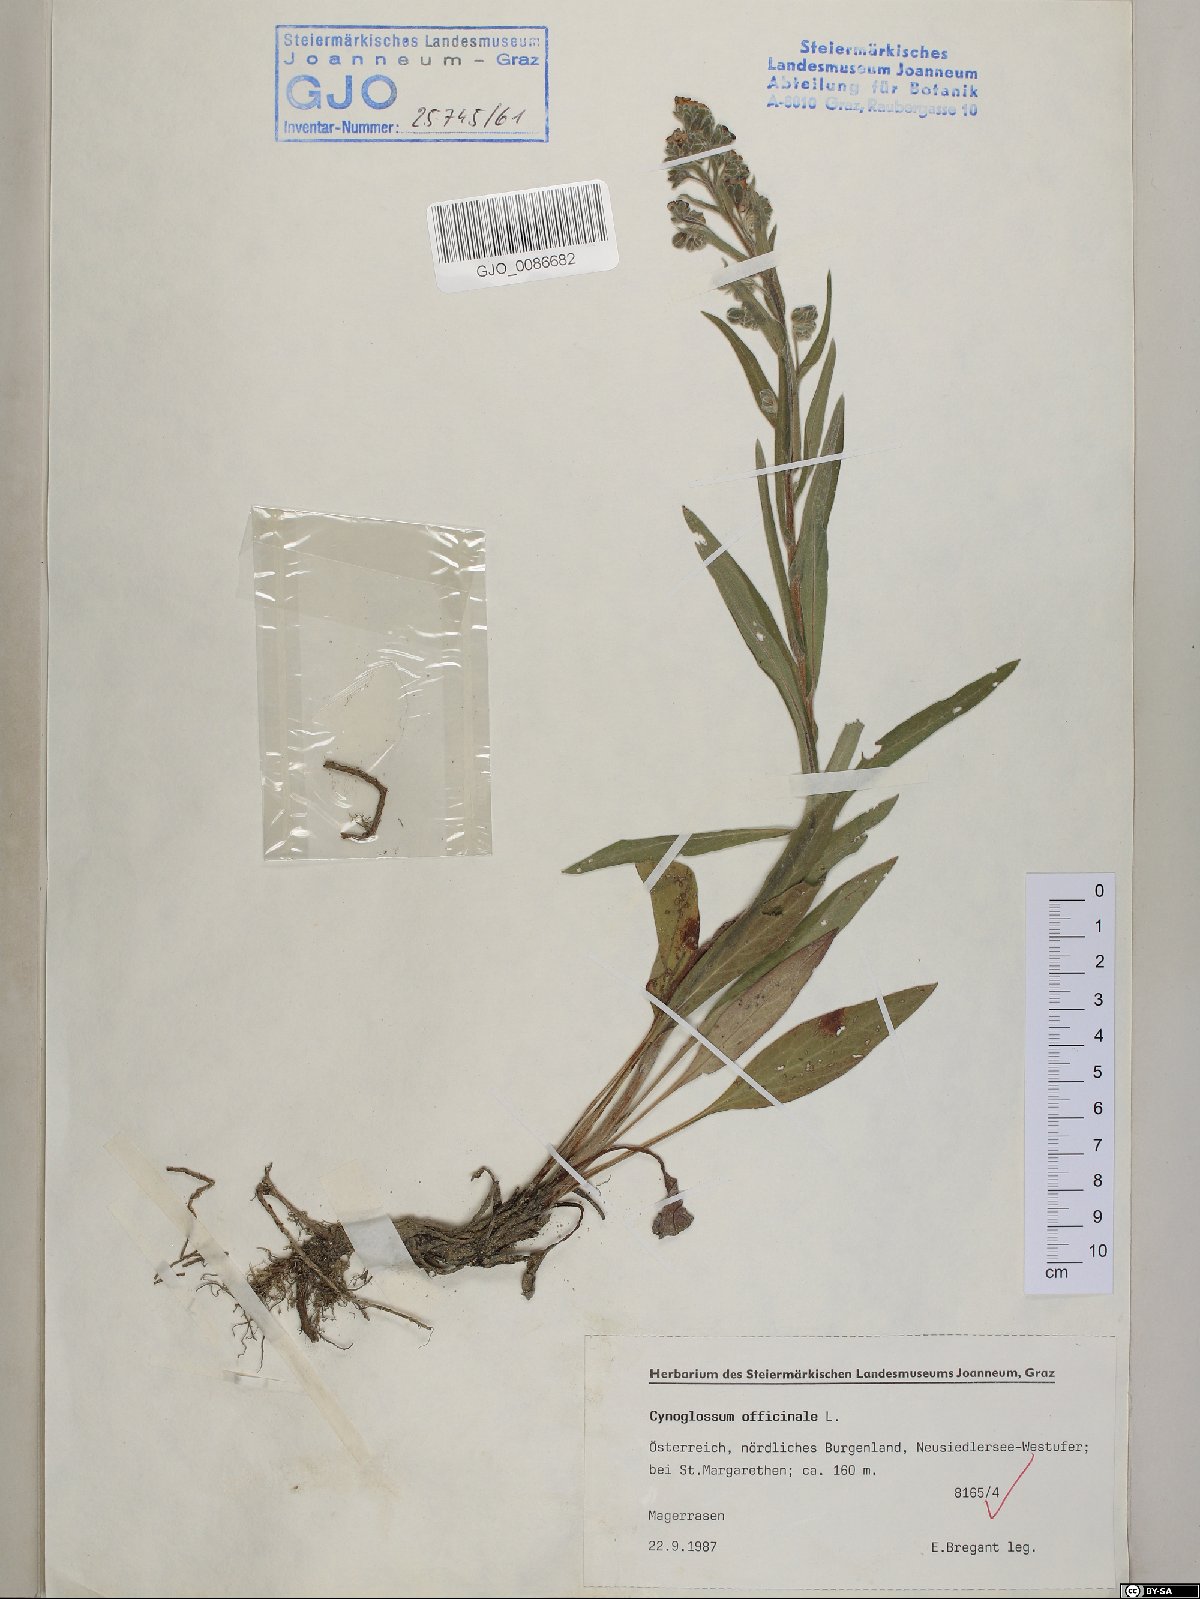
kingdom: Plantae
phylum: Tracheophyta
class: Magnoliopsida
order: Boraginales
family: Boraginaceae
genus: Cynoglossum
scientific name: Cynoglossum officinale
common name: Hound's-tongue
